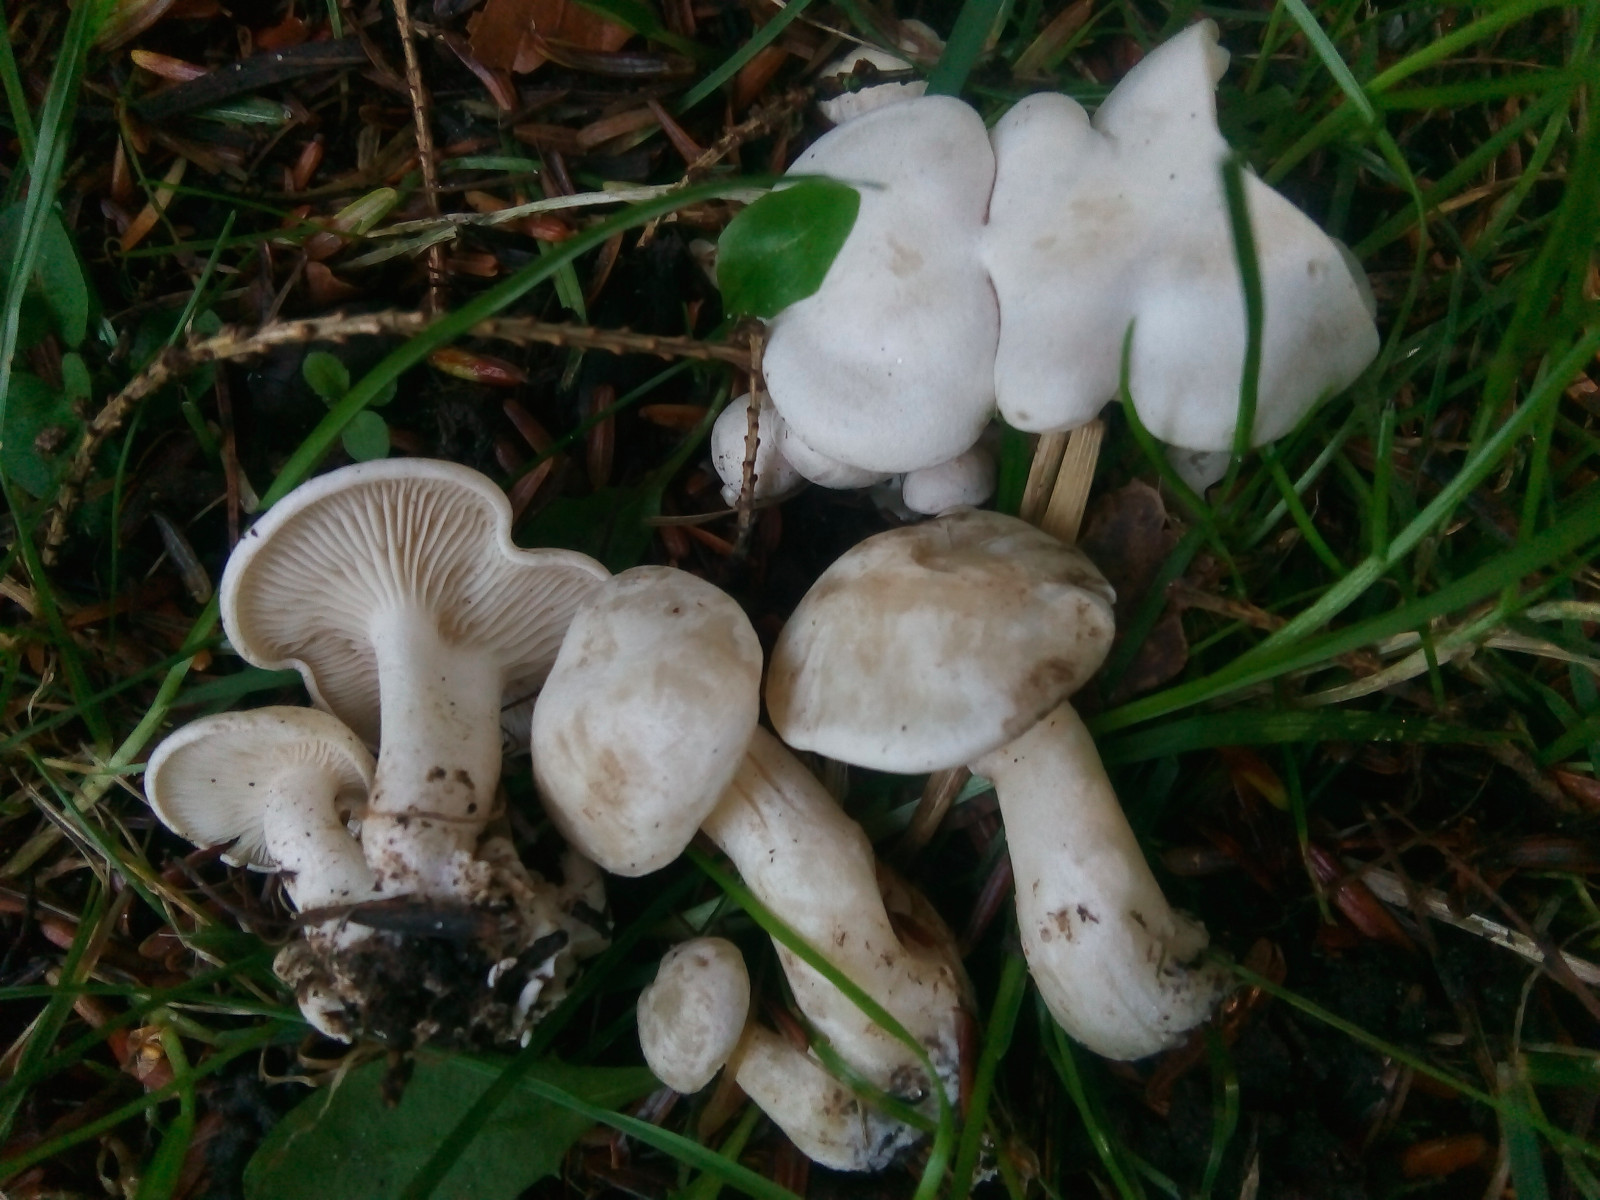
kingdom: Fungi
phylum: Basidiomycota
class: Agaricomycetes
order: Agaricales
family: Tricholomataceae
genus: Leucocybe
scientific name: Leucocybe connata
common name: knippe-tragthat
